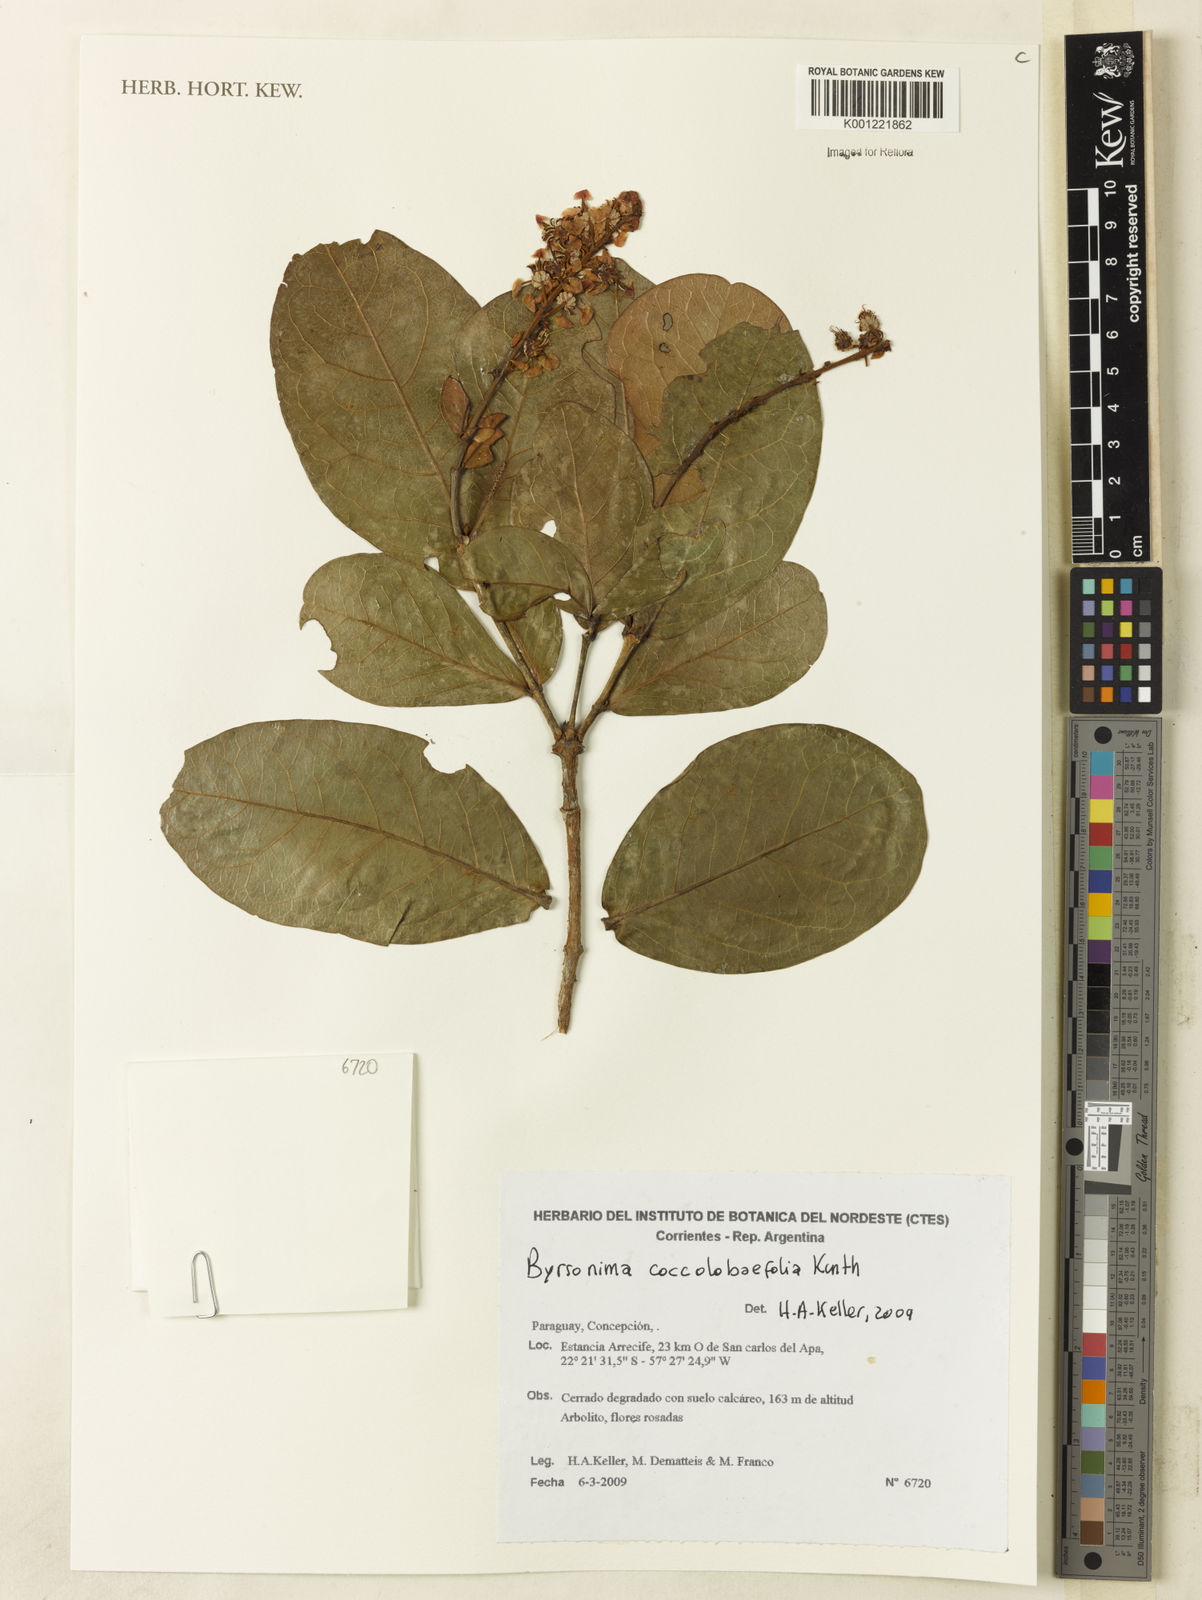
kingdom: Plantae
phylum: Tracheophyta
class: Magnoliopsida
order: Malpighiales
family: Malpighiaceae
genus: Byrsonima
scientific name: Byrsonima coccolobifolia
